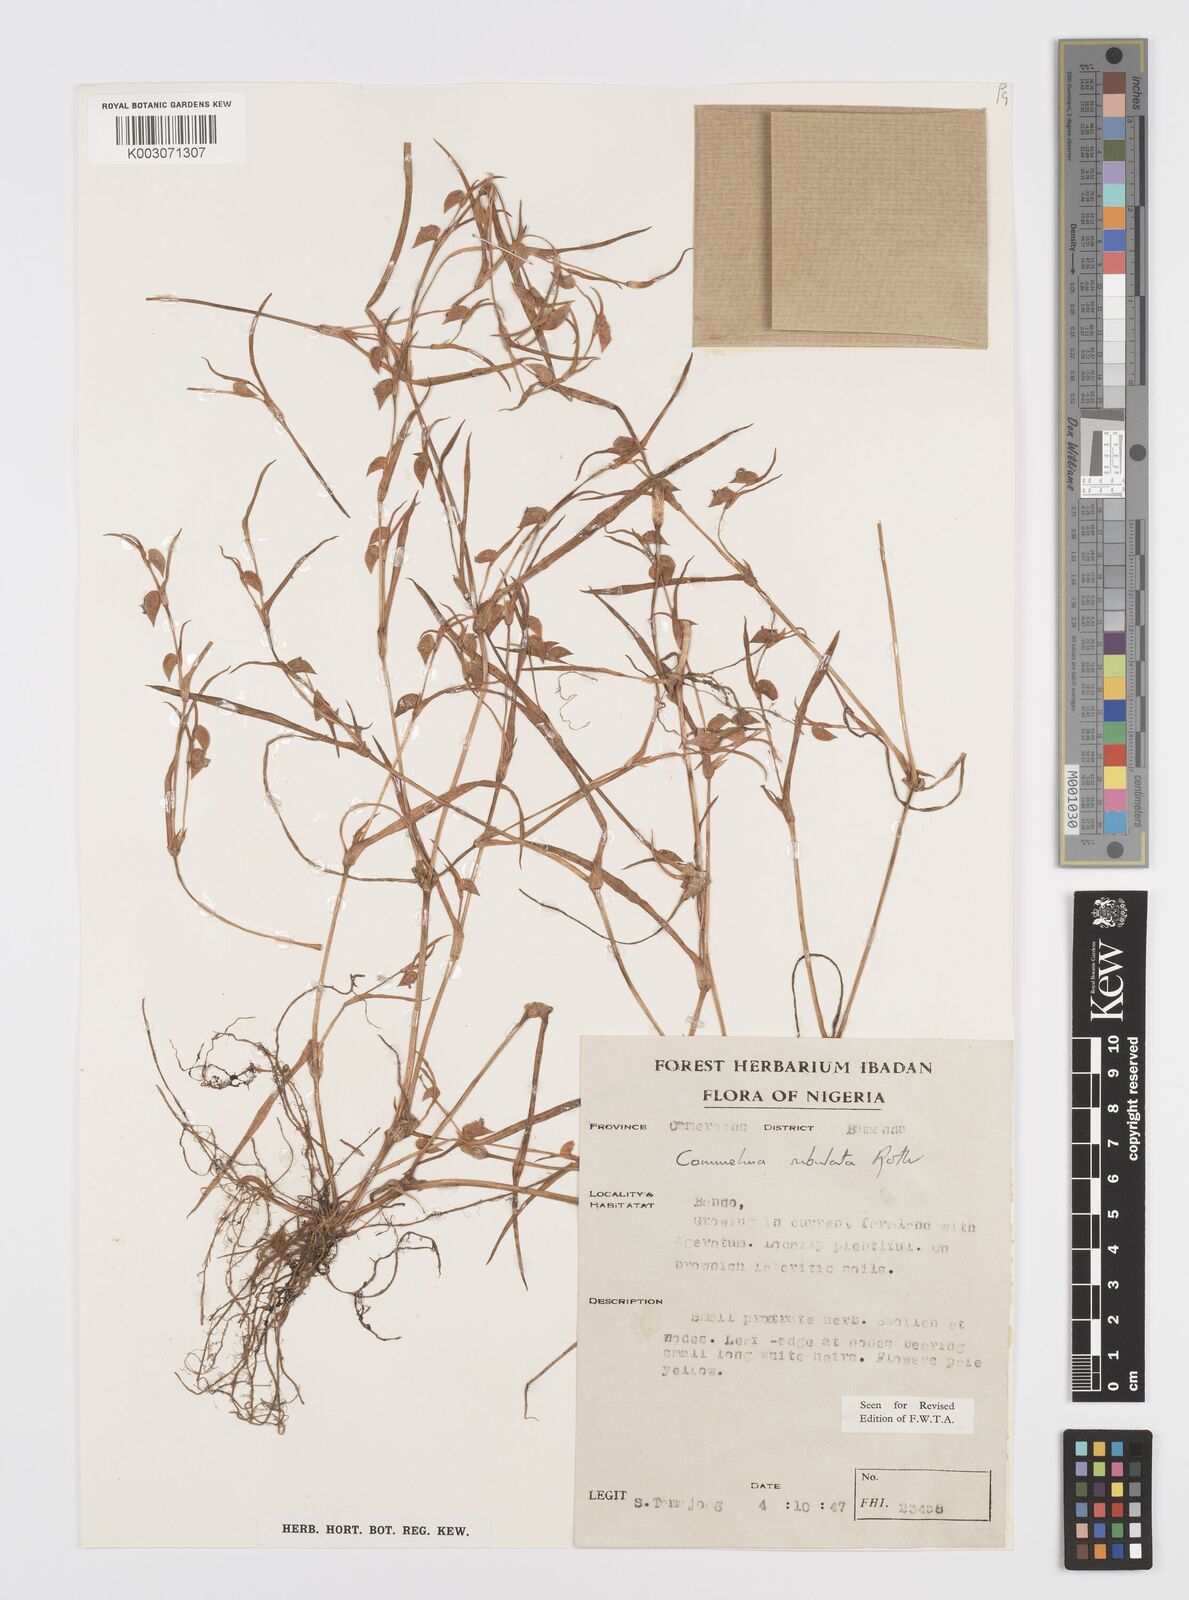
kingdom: Plantae
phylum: Tracheophyta
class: Liliopsida
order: Commelinales
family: Commelinaceae
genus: Commelina
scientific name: Commelina subulata
